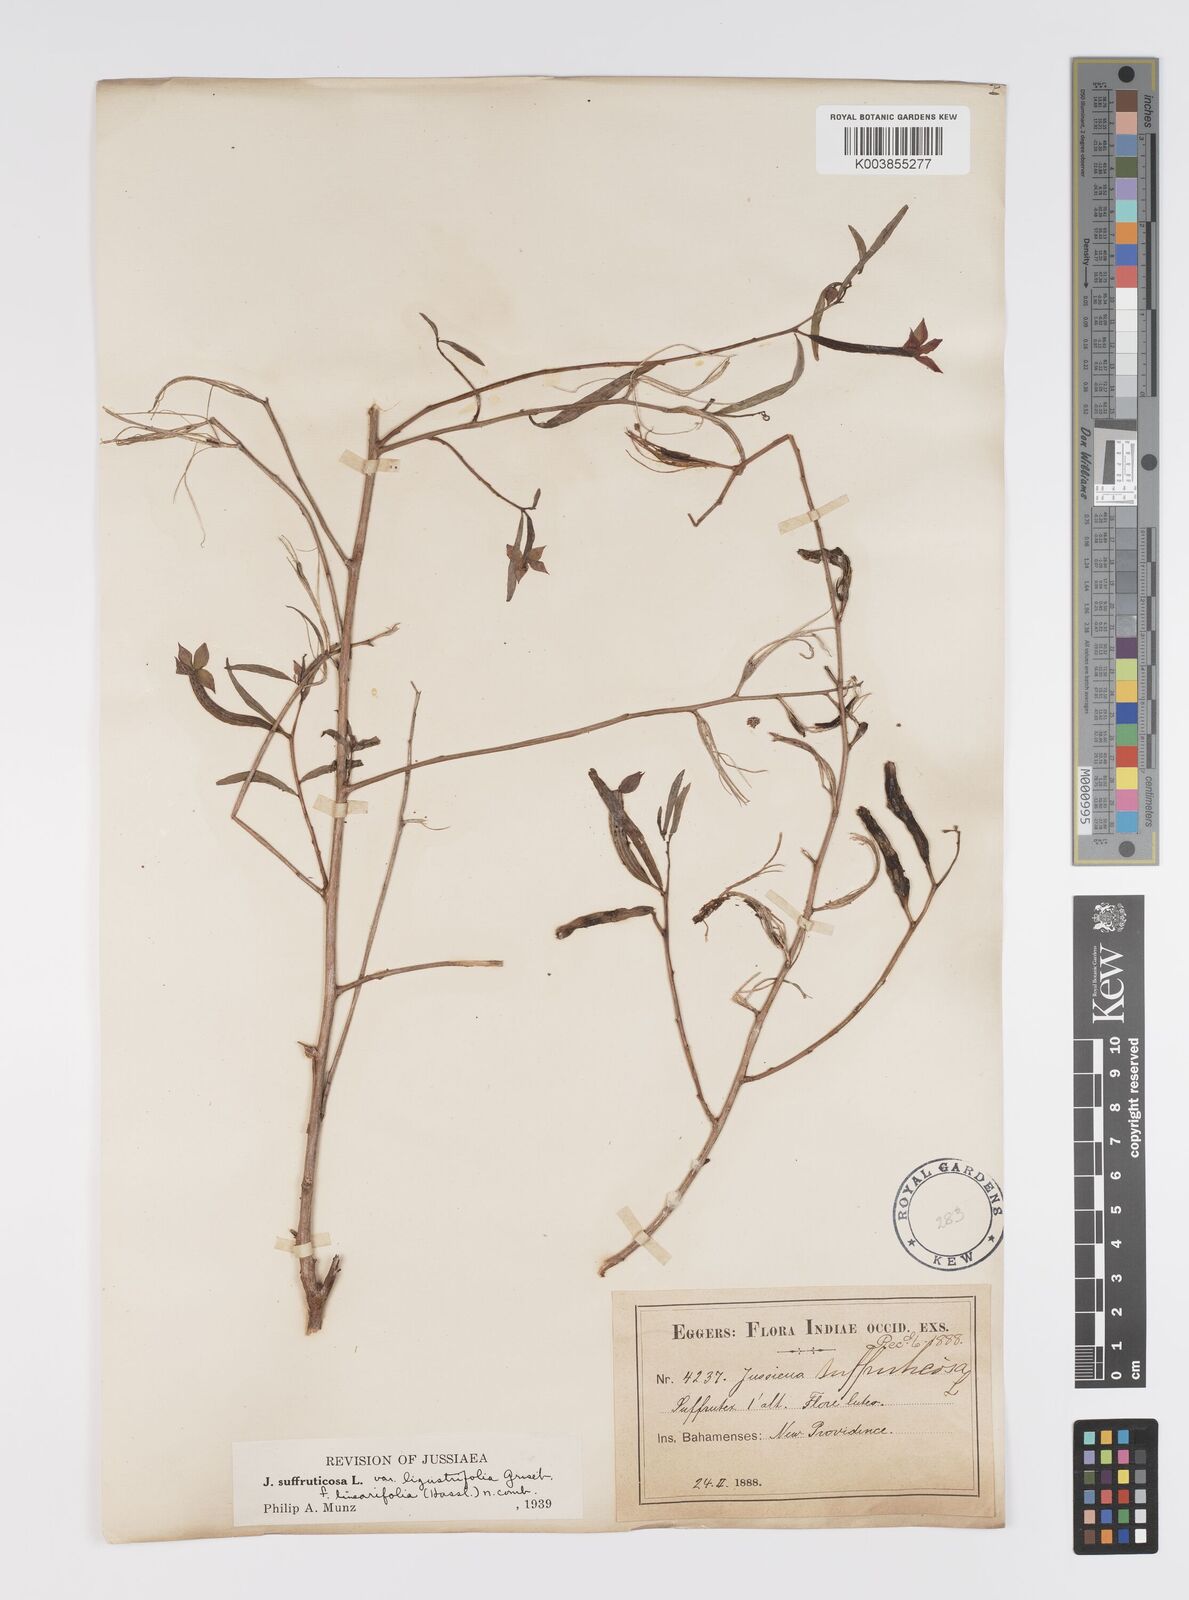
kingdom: Plantae
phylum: Tracheophyta
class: Magnoliopsida
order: Myrtales
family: Onagraceae
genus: Ludwigia
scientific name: Ludwigia octovalvis
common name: Water-primrose
